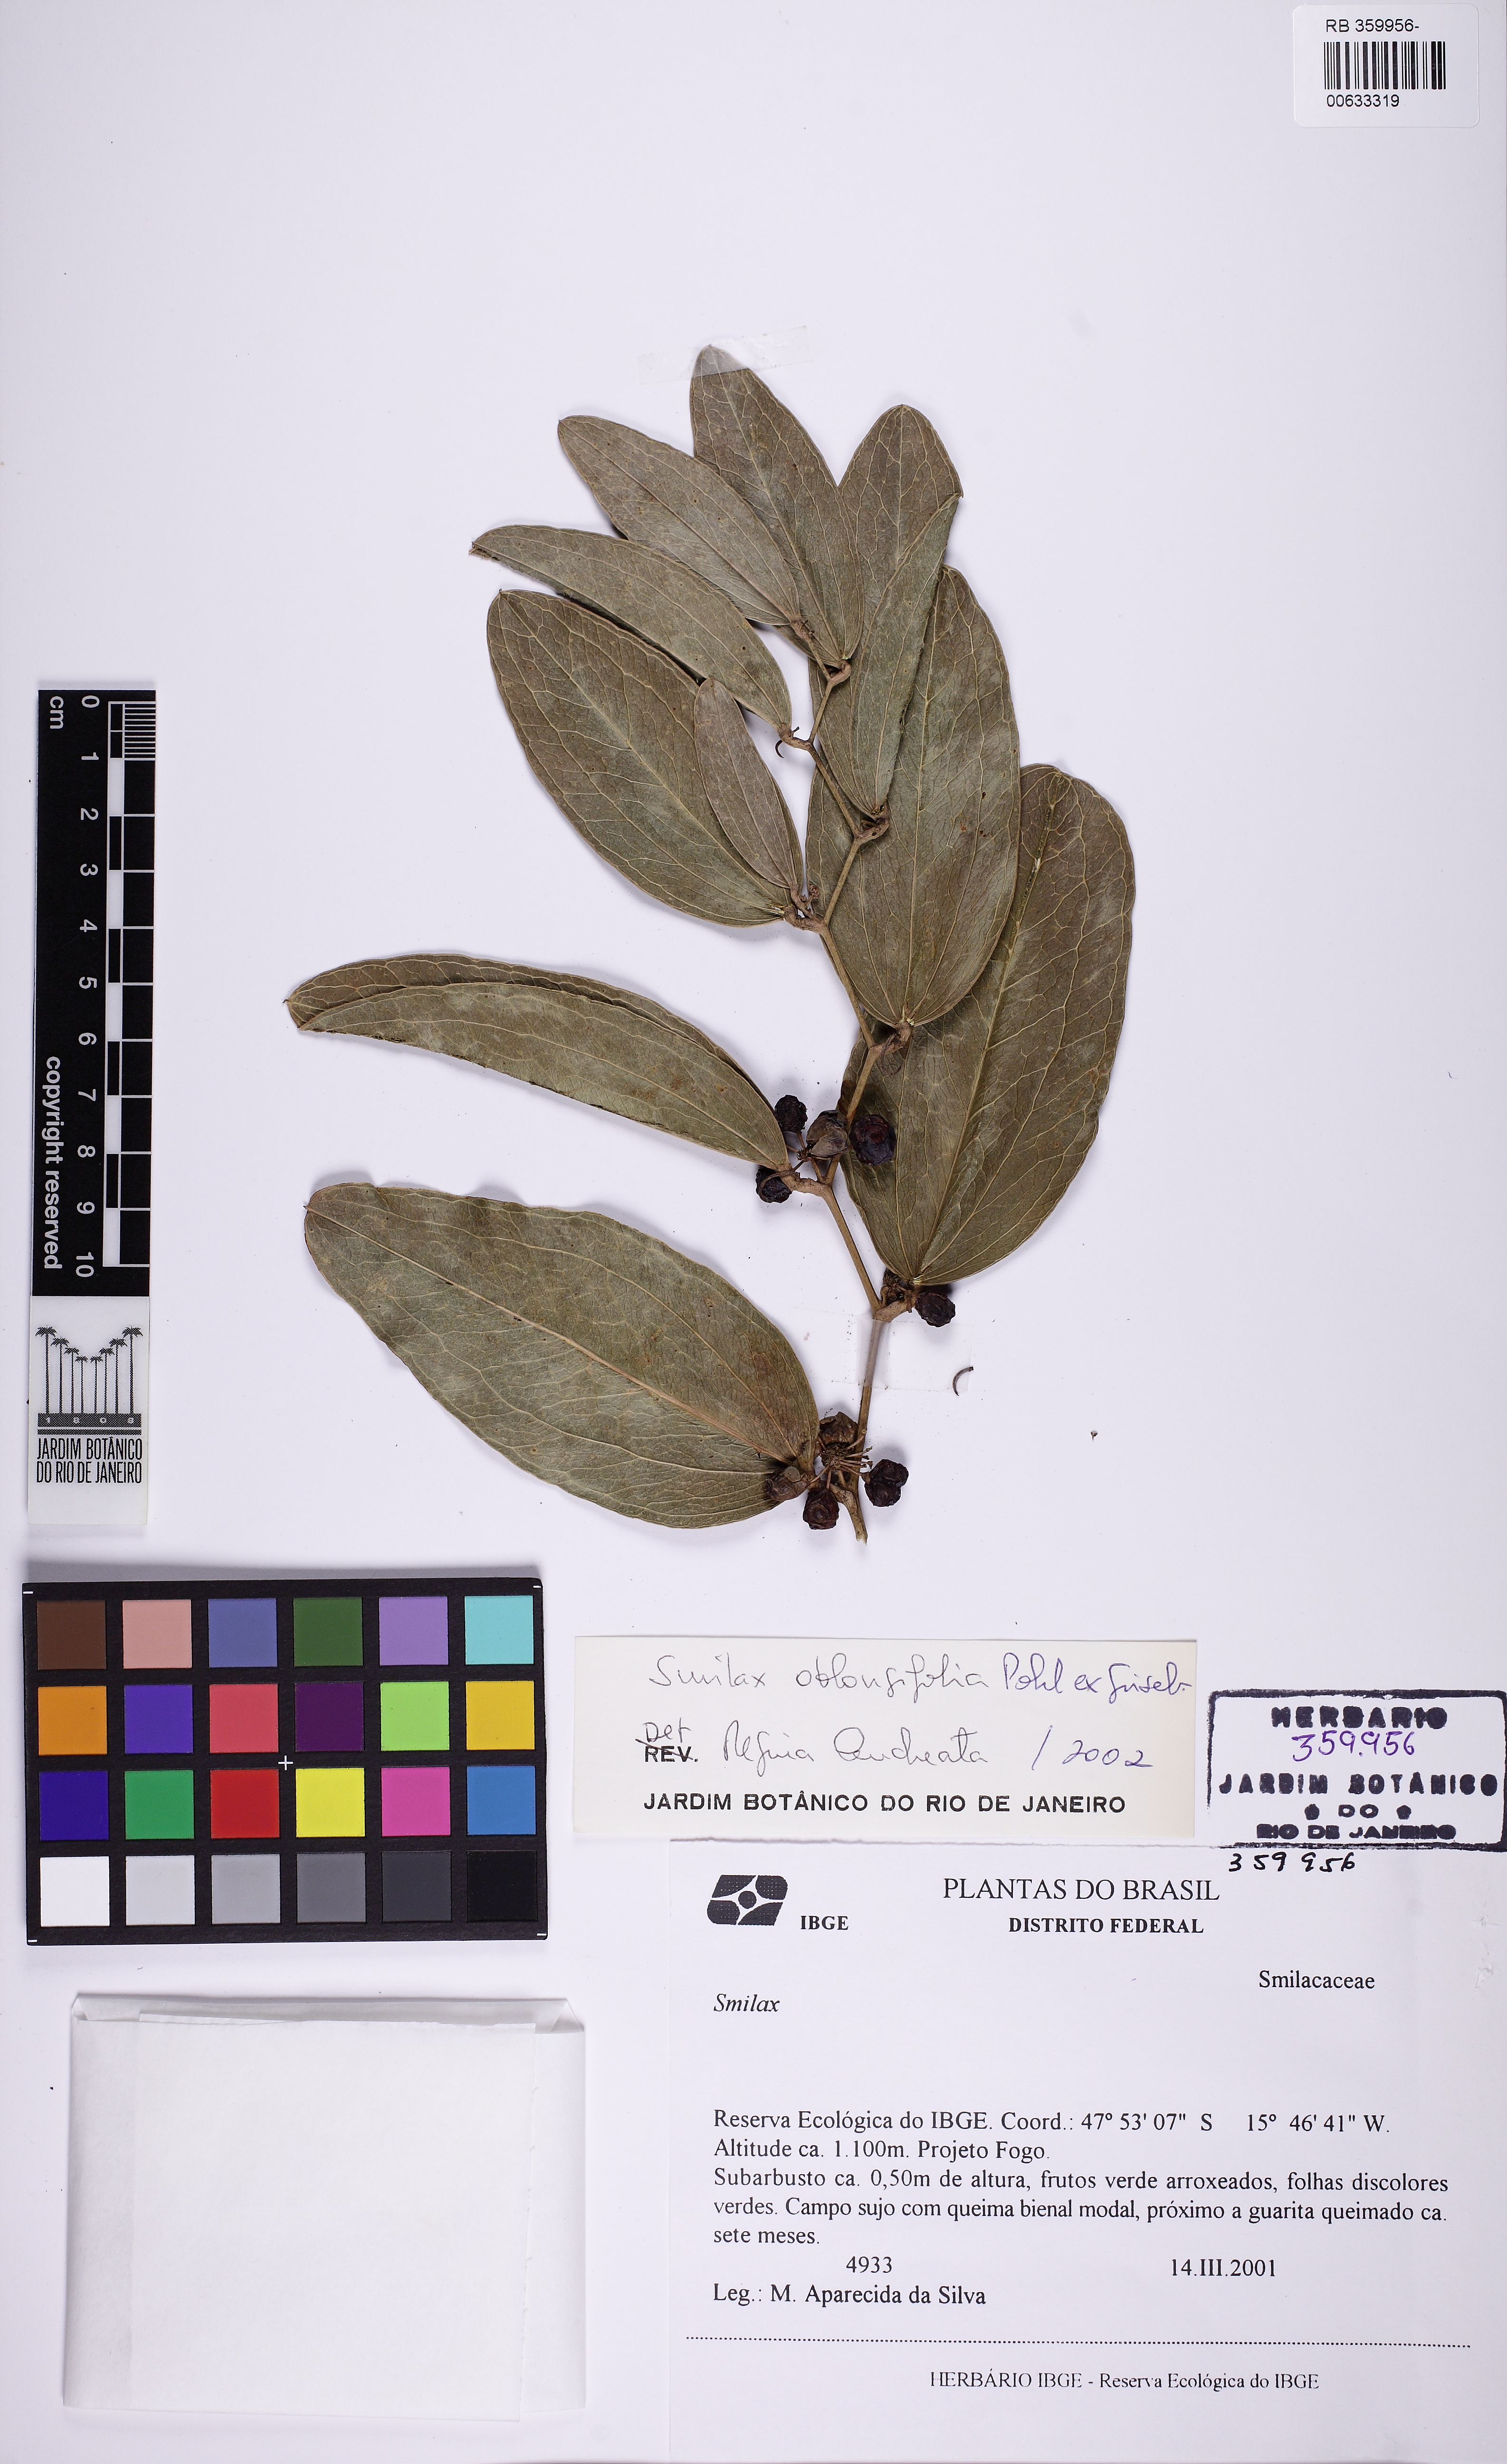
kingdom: Plantae
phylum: Tracheophyta
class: Liliopsida
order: Liliales
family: Smilacaceae
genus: Smilax
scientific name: Smilax oblongifolia
